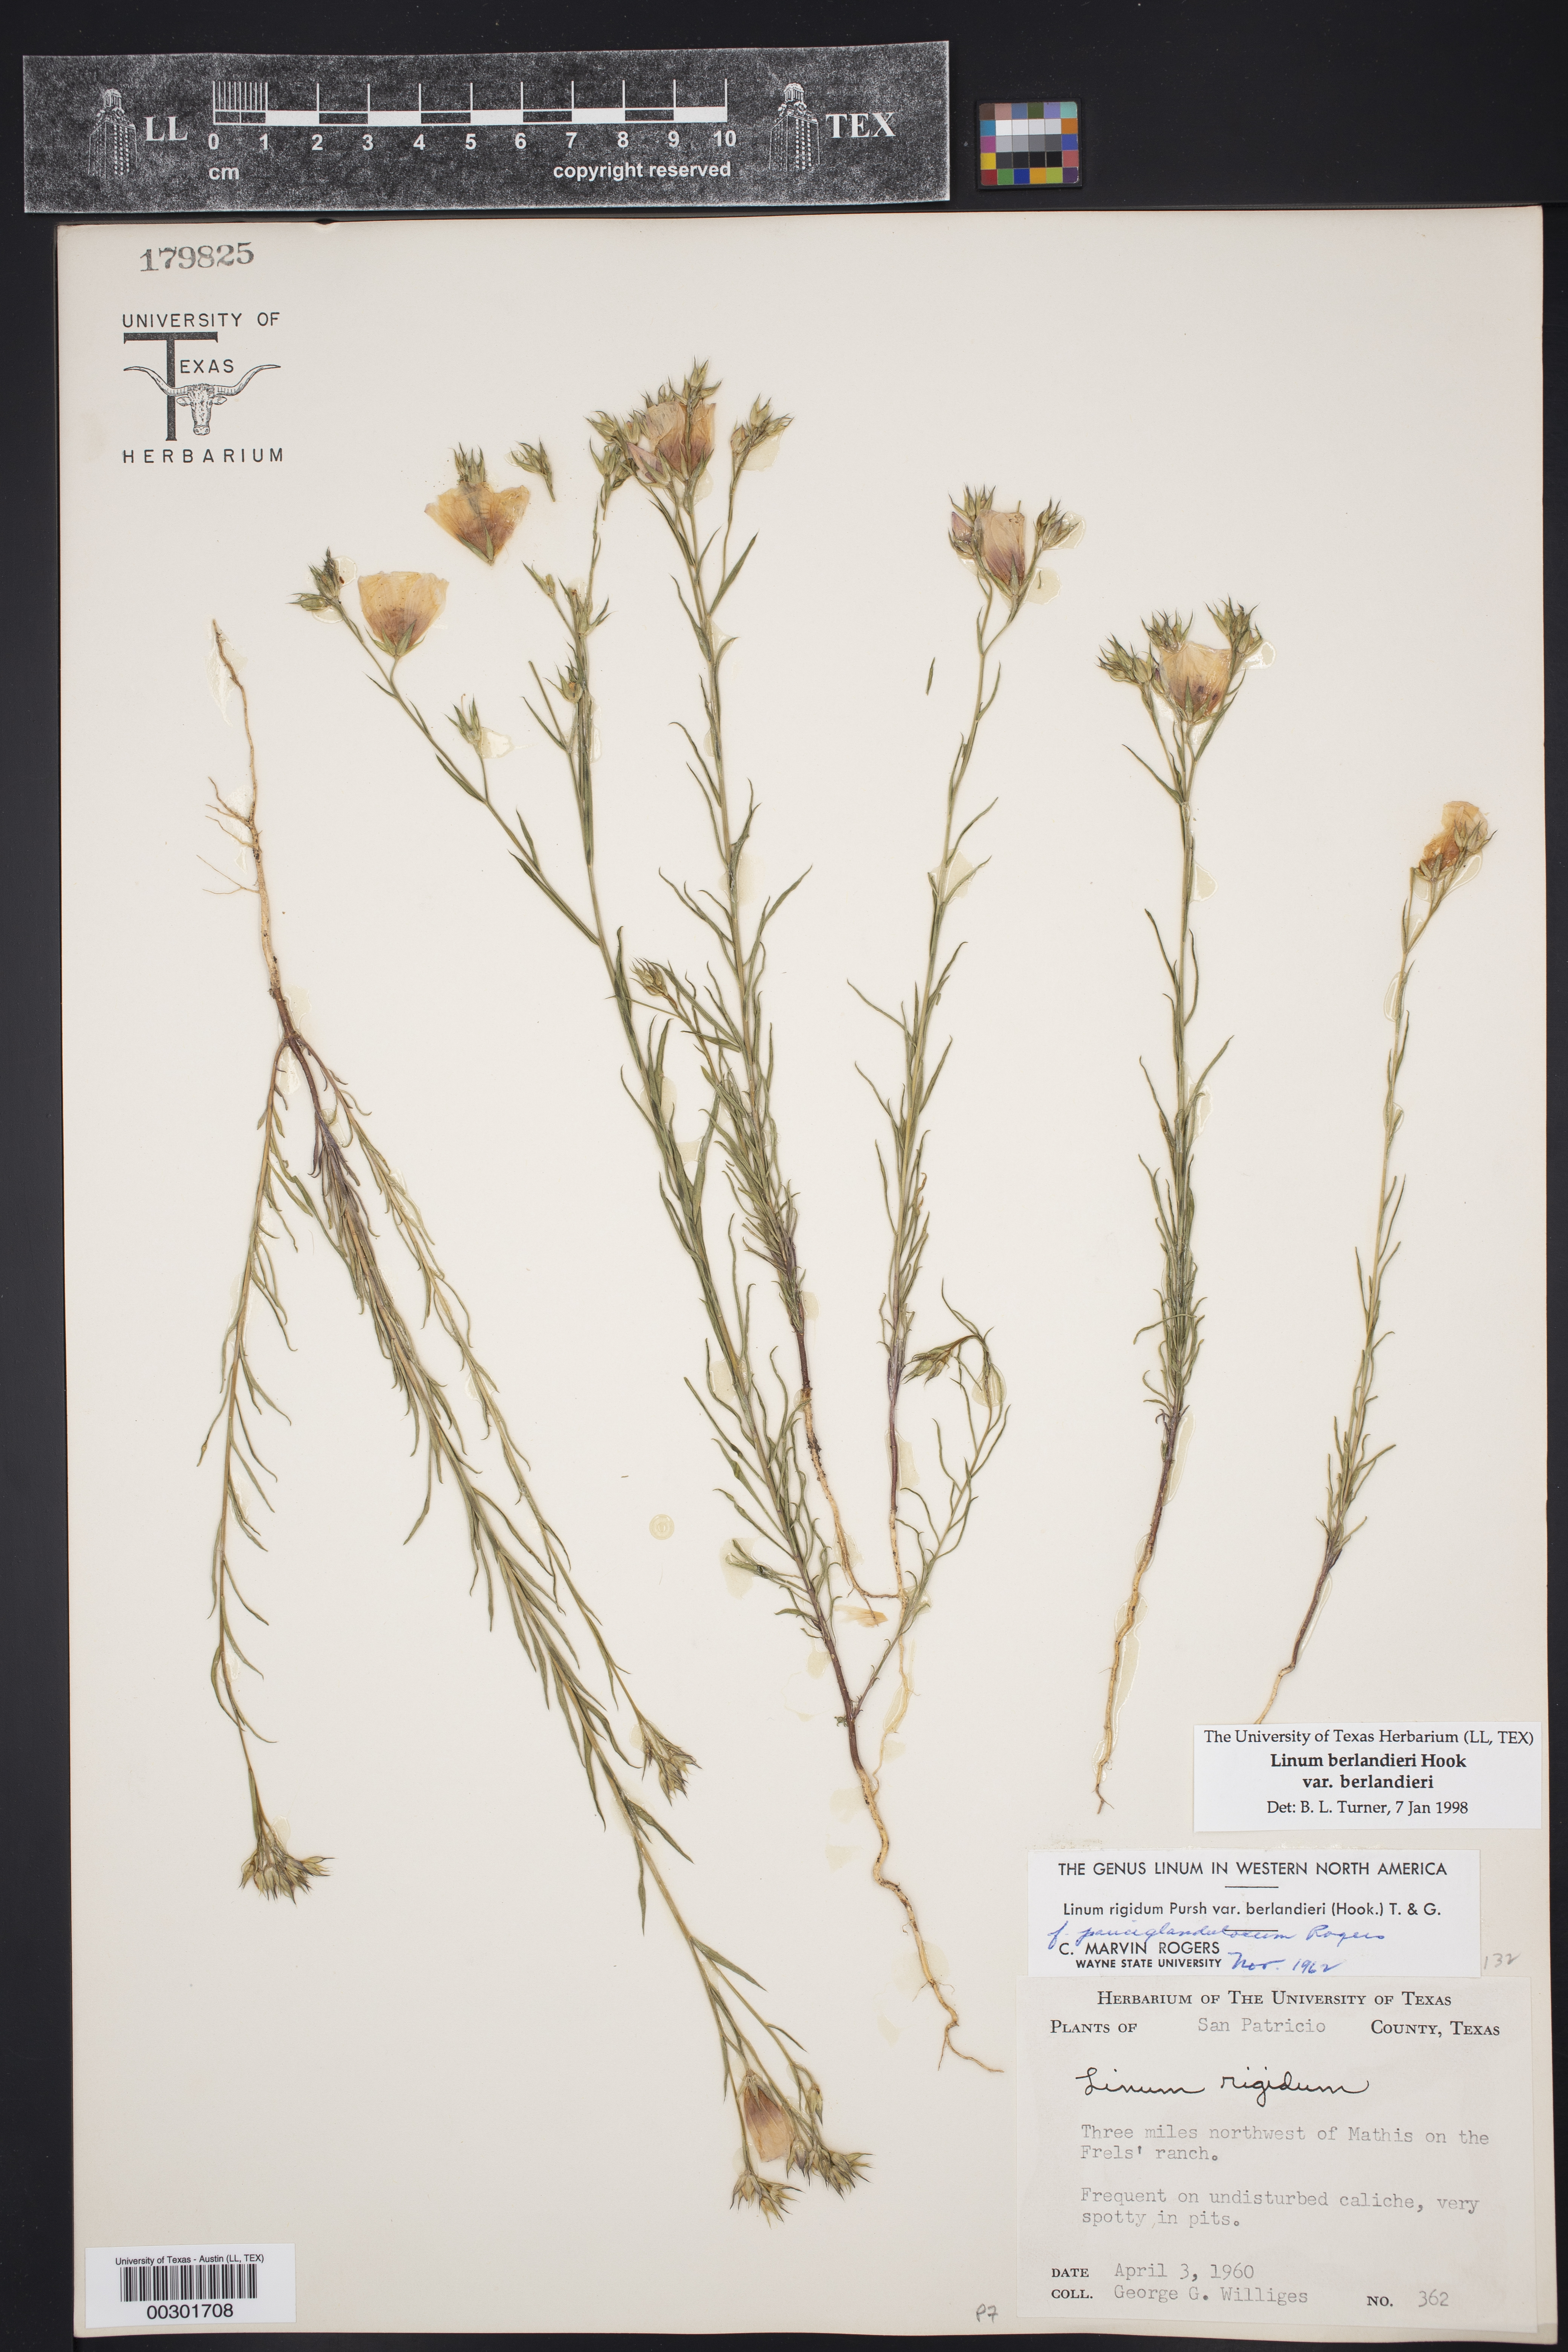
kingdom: Plantae
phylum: Tracheophyta
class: Magnoliopsida
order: Malpighiales
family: Linaceae
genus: Linum
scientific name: Linum berlandieri
